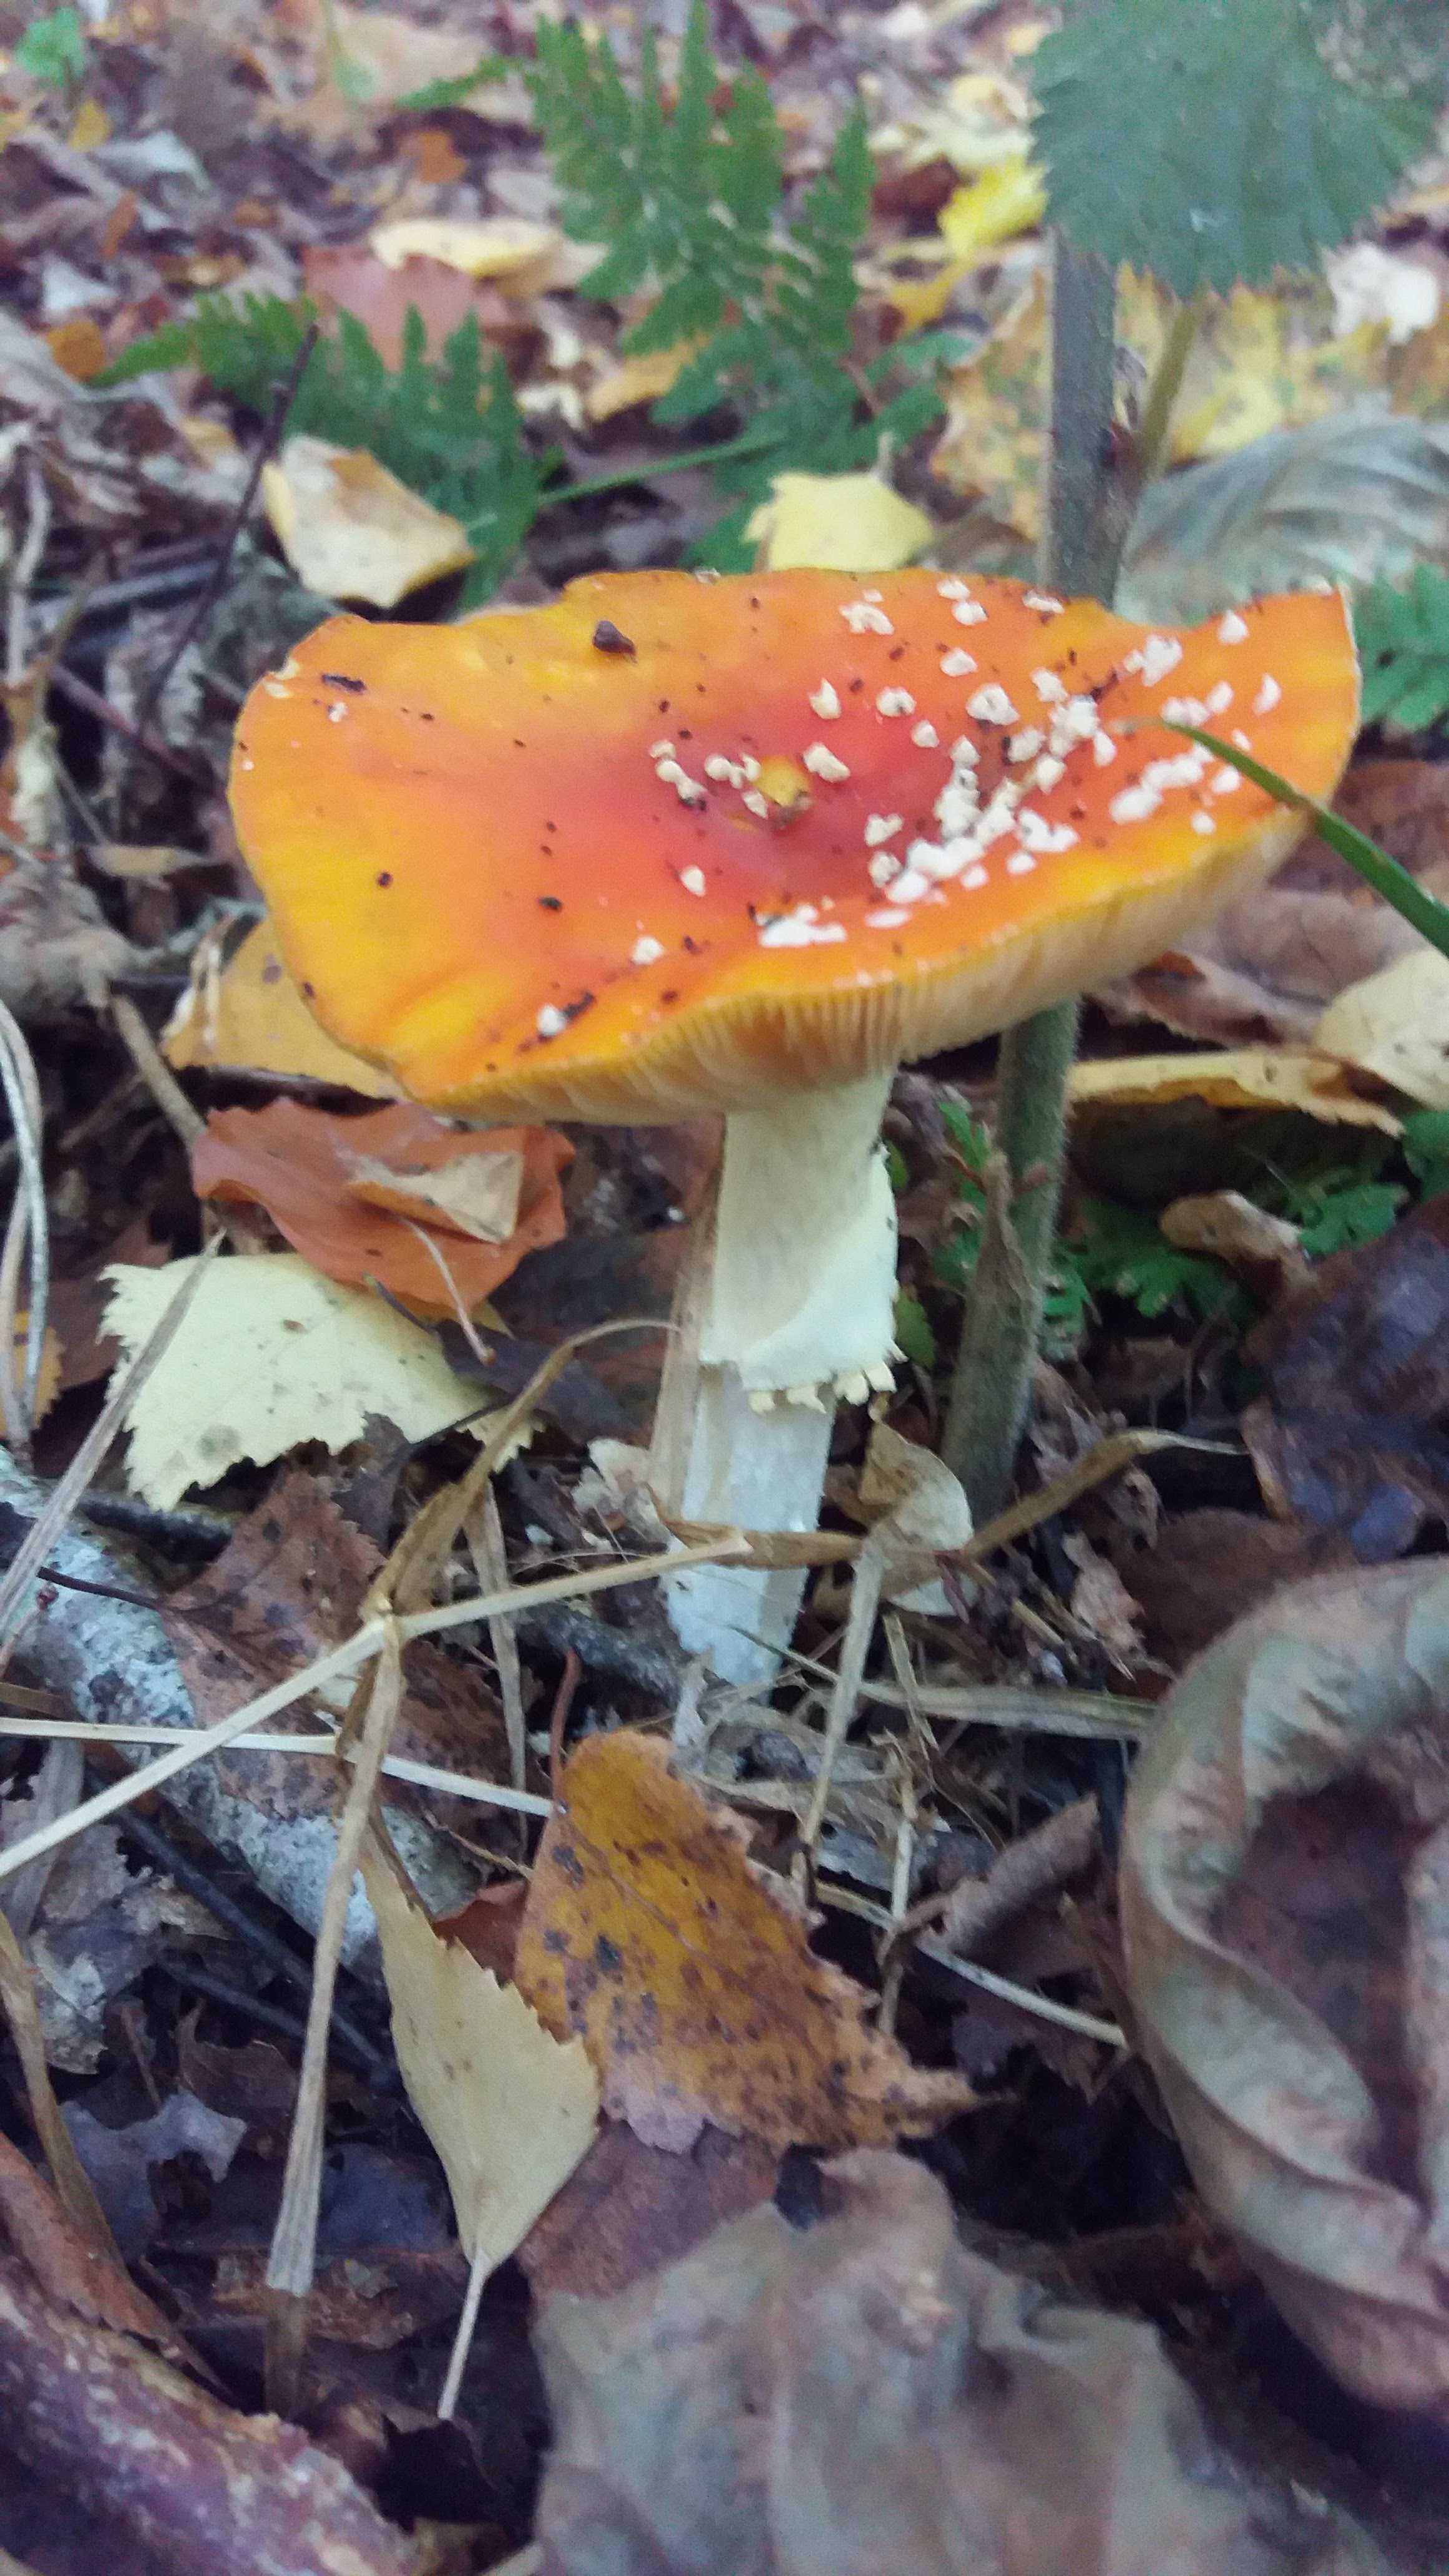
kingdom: Fungi
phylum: Basidiomycota
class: Agaricomycetes
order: Agaricales
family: Amanitaceae
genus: Amanita
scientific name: Amanita muscaria
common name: rød fluesvamp
